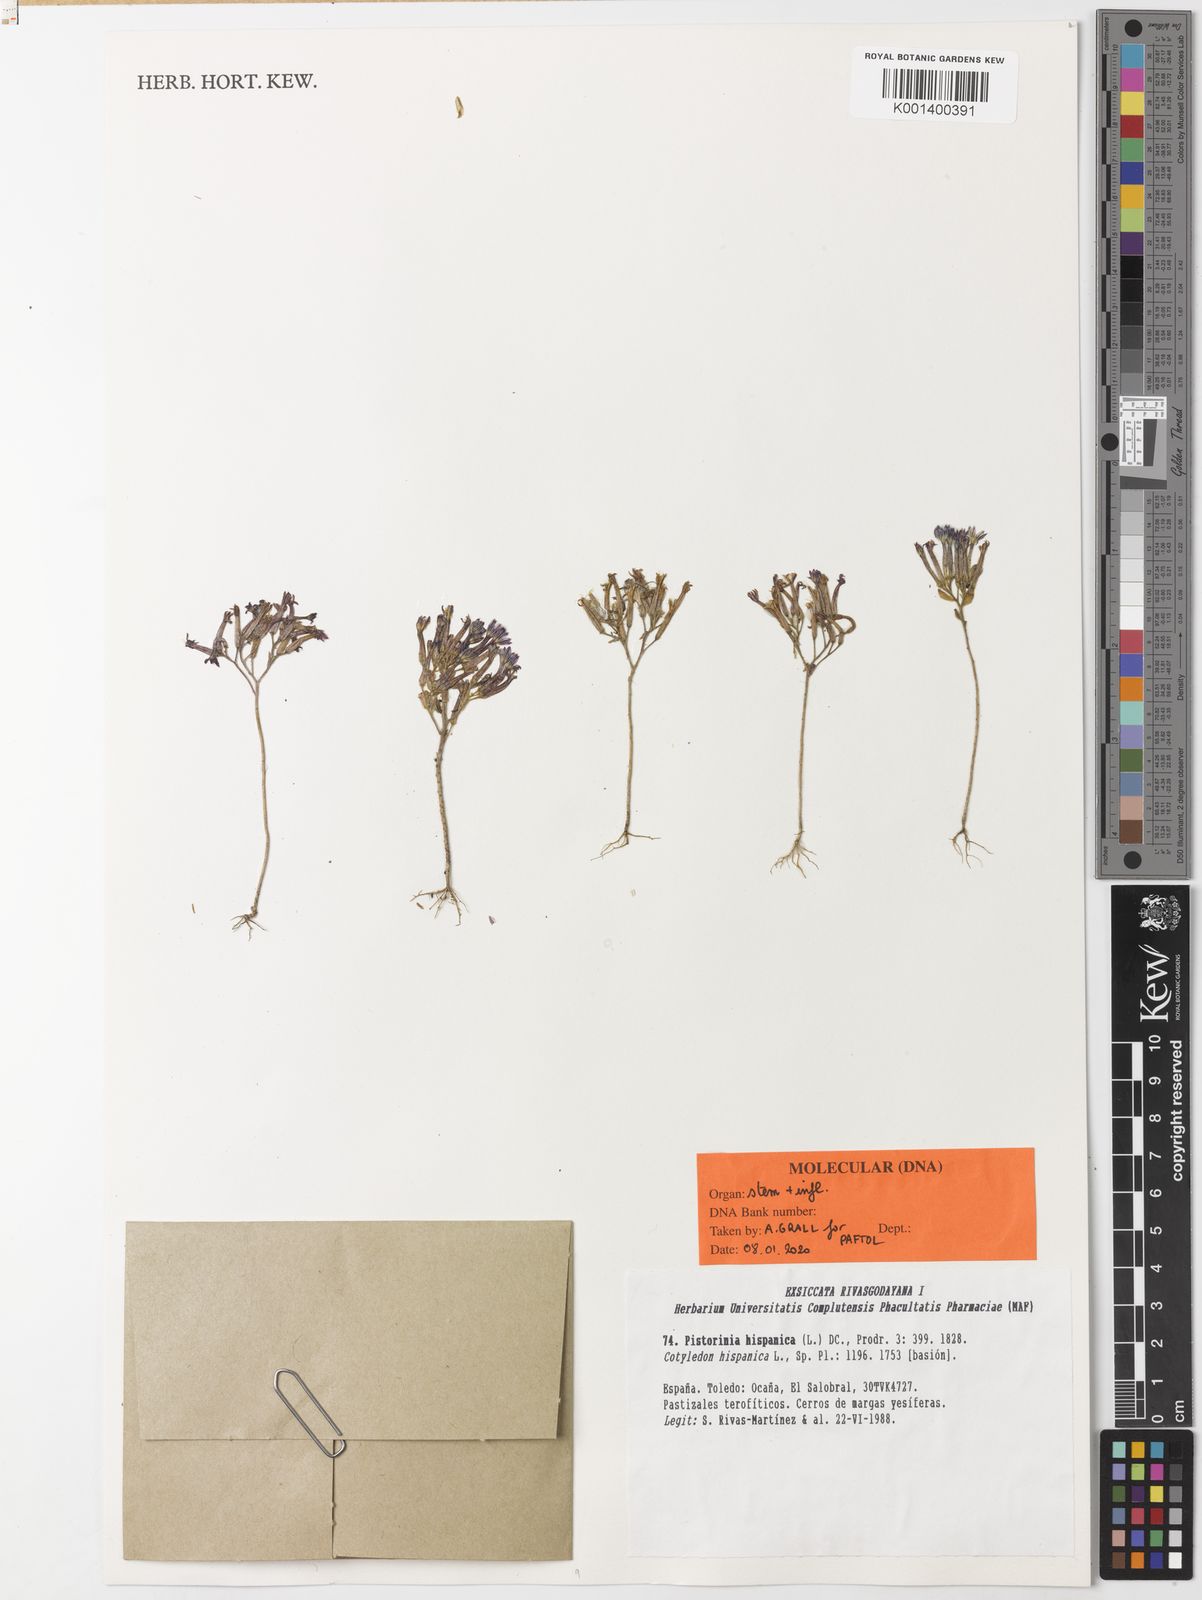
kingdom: Plantae
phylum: Tracheophyta
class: Magnoliopsida
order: Saxifragales
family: Crassulaceae
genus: Pistorinia
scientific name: Pistorinia hispanica
